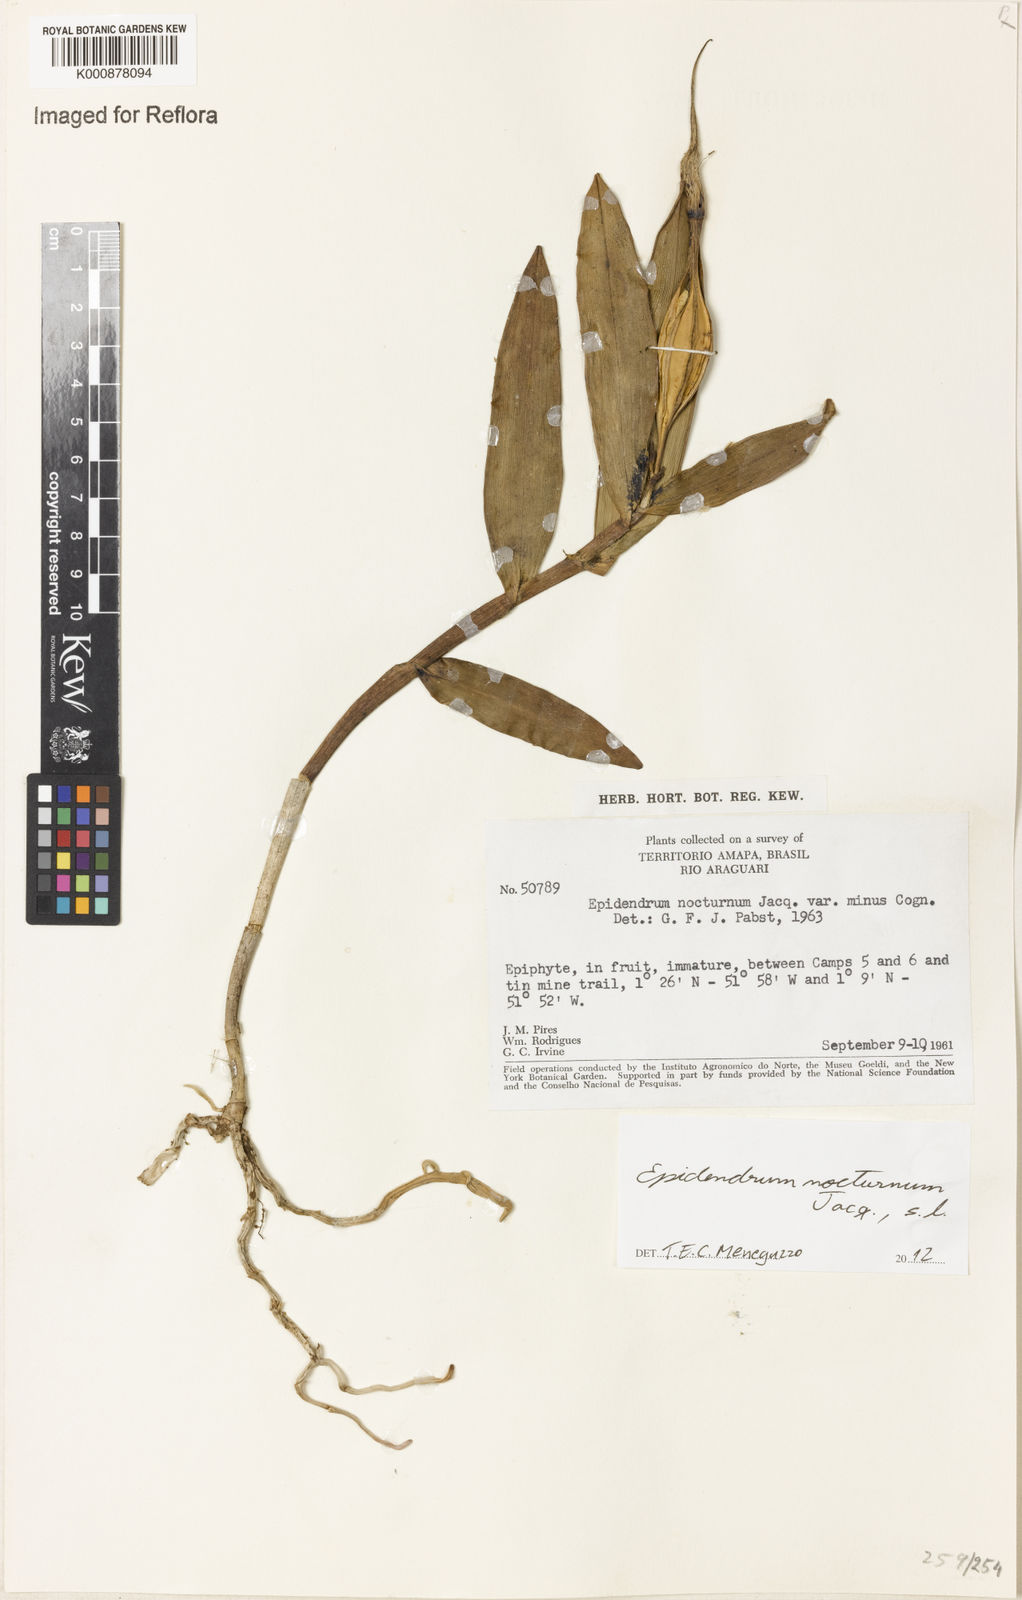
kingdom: Plantae
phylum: Tracheophyta
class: Liliopsida
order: Asparagales
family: Orchidaceae
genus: Epidendrum
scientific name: Epidendrum nocturnum
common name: Night scented orchid
